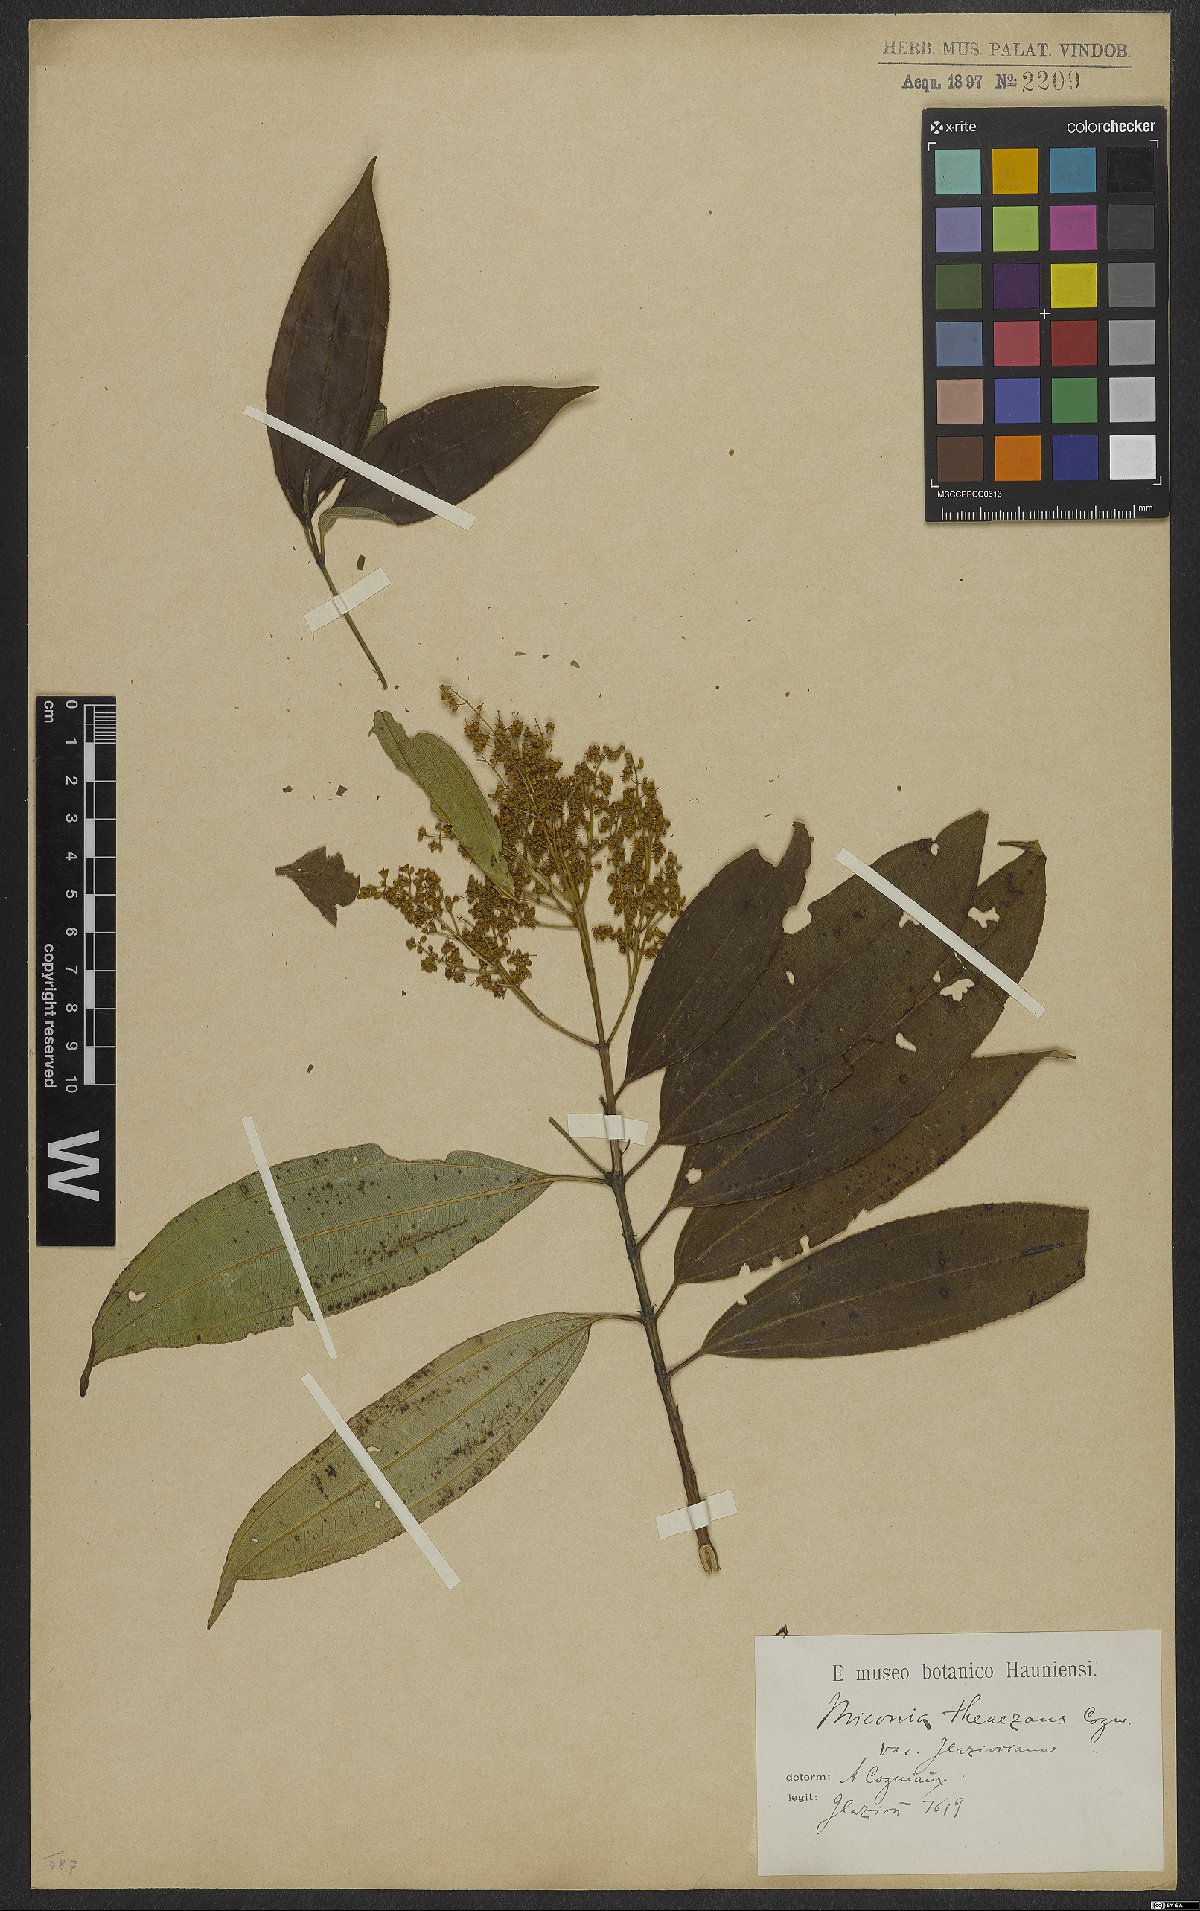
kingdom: Plantae
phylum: Tracheophyta
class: Magnoliopsida
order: Myrtales
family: Melastomataceae
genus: Miconia
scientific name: Miconia theizans
